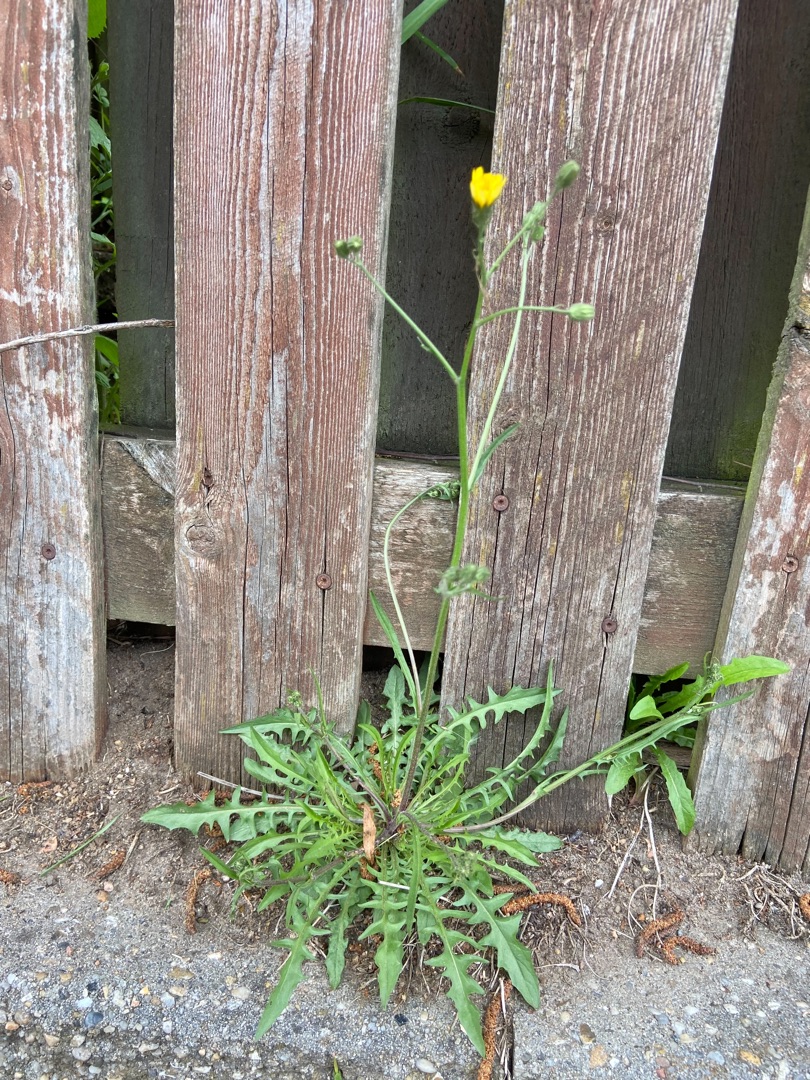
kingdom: Plantae
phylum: Tracheophyta
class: Magnoliopsida
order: Asterales
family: Asteraceae
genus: Crepis
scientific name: Crepis capillaris
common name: Grøn høgeskæg
